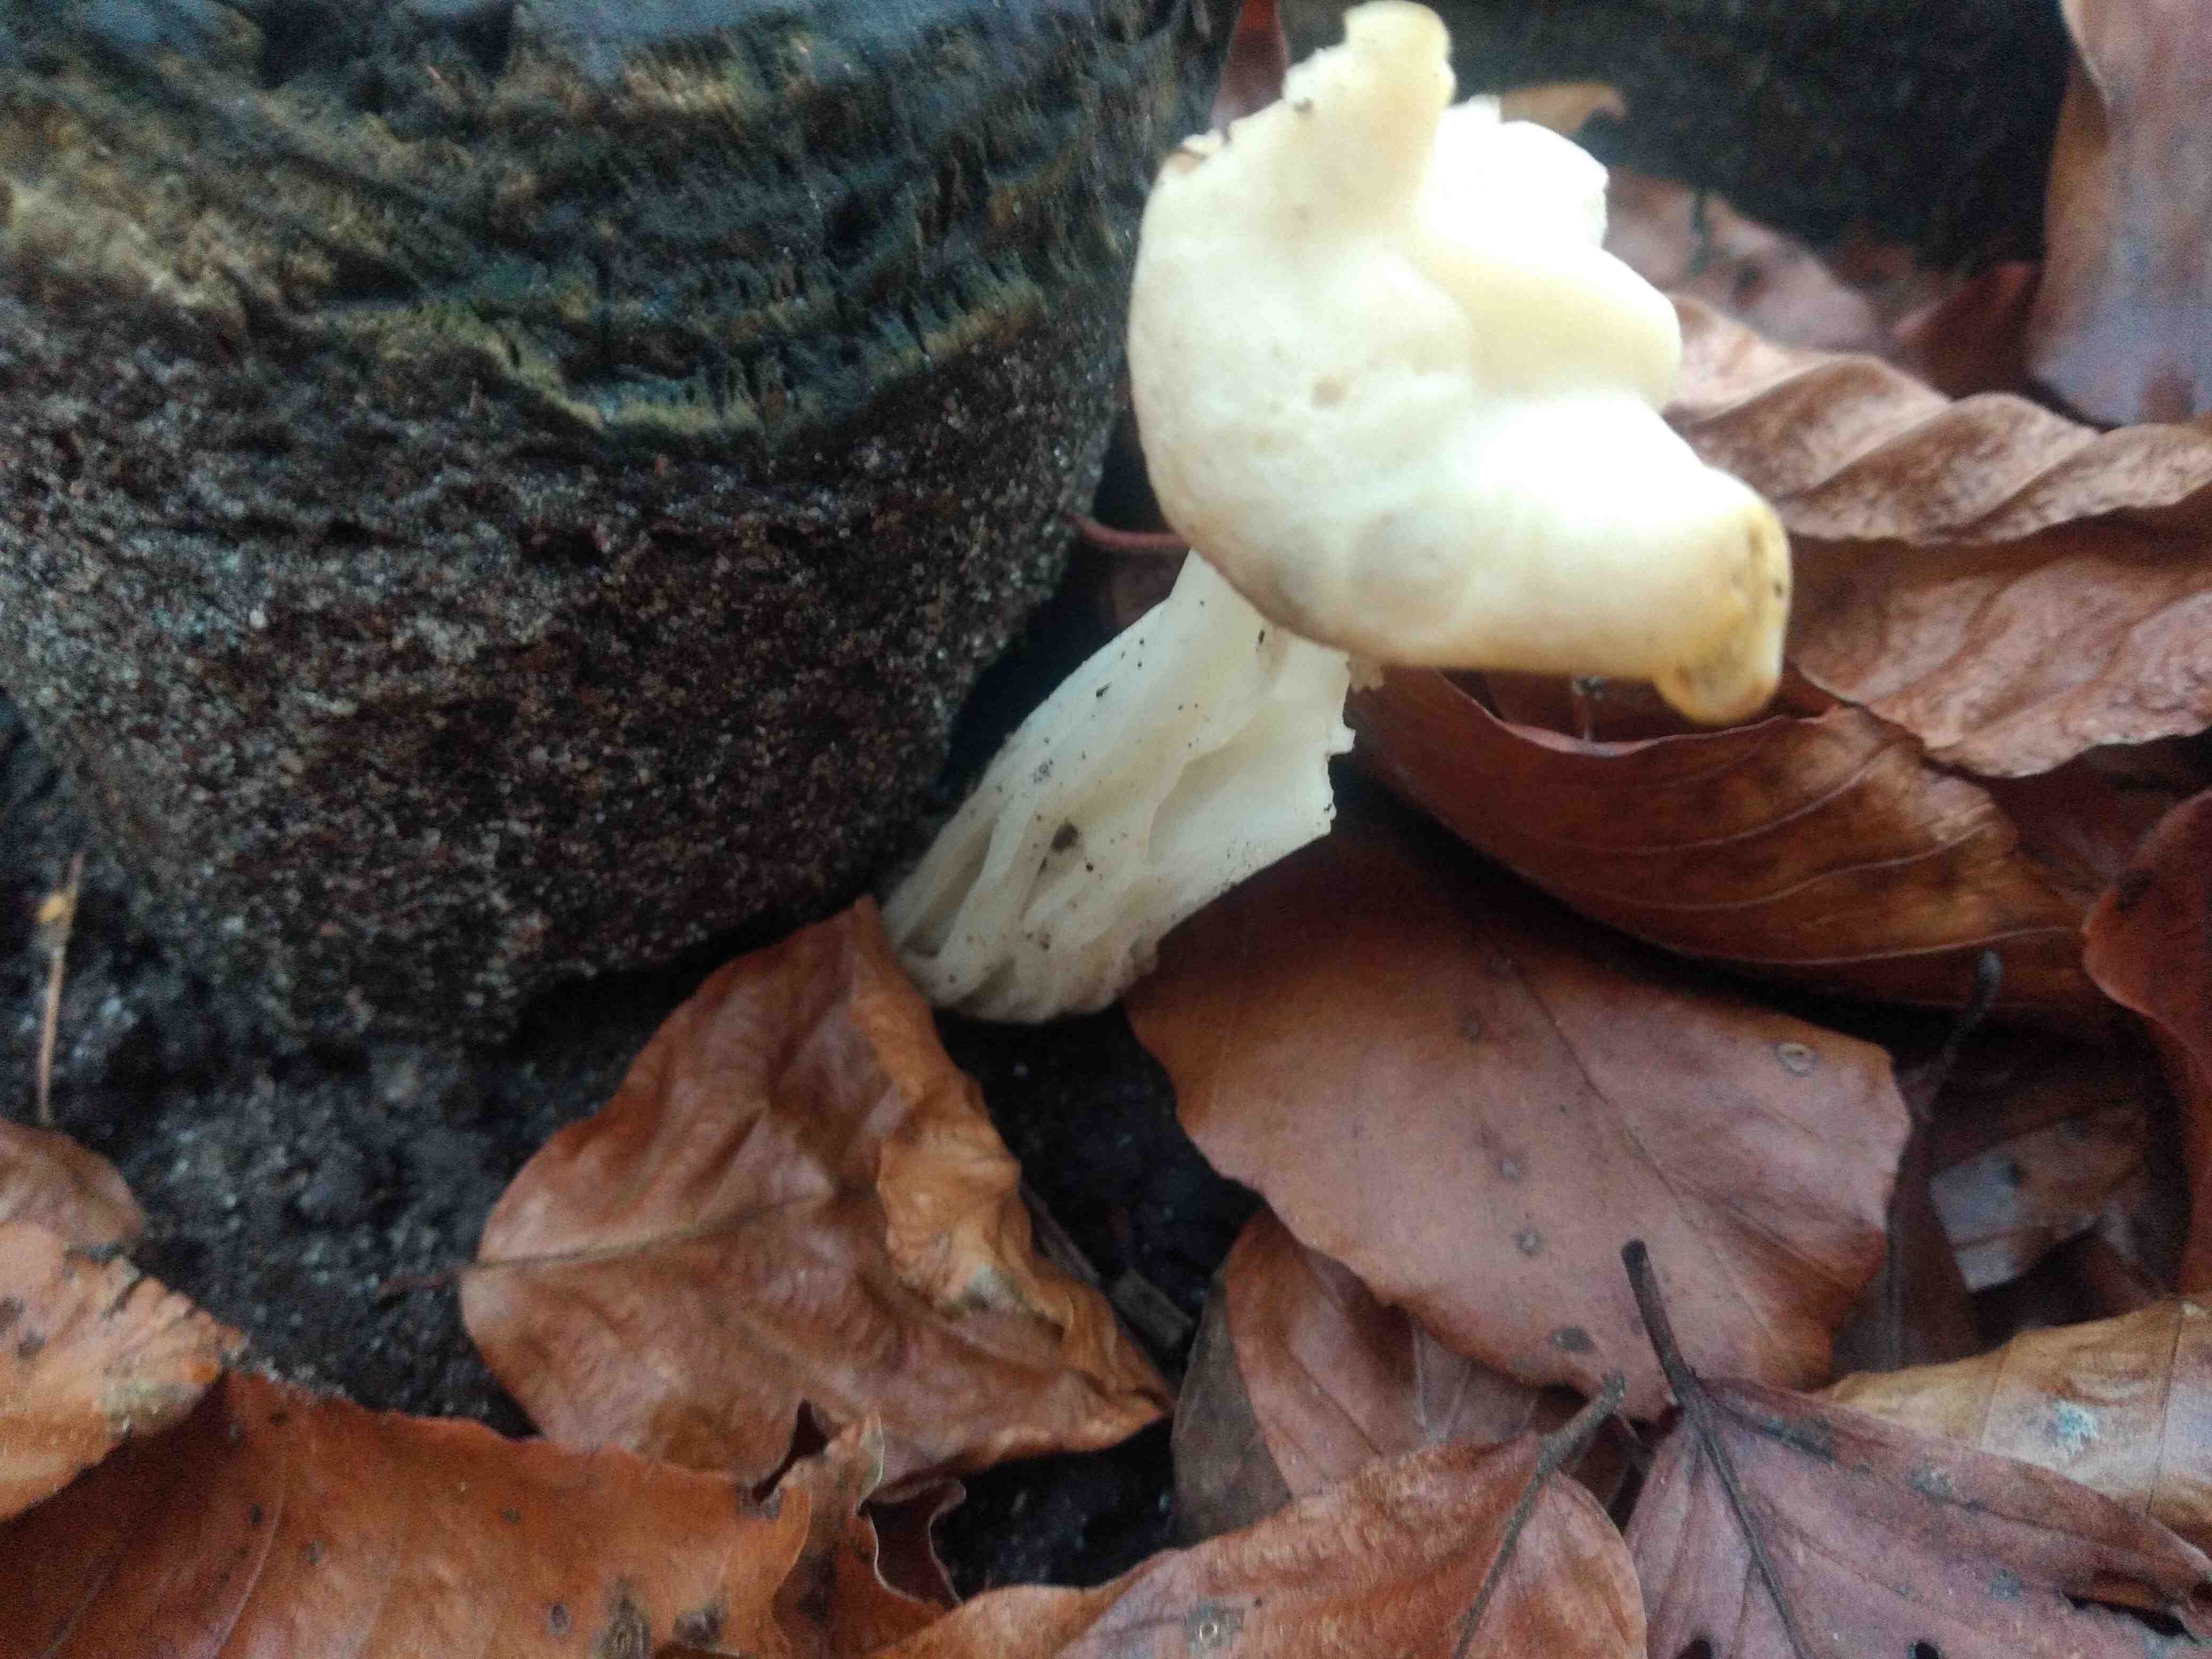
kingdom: Fungi
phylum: Ascomycota
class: Pezizomycetes
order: Pezizales
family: Helvellaceae
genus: Helvella
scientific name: Helvella crispa
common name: kruset foldhat
